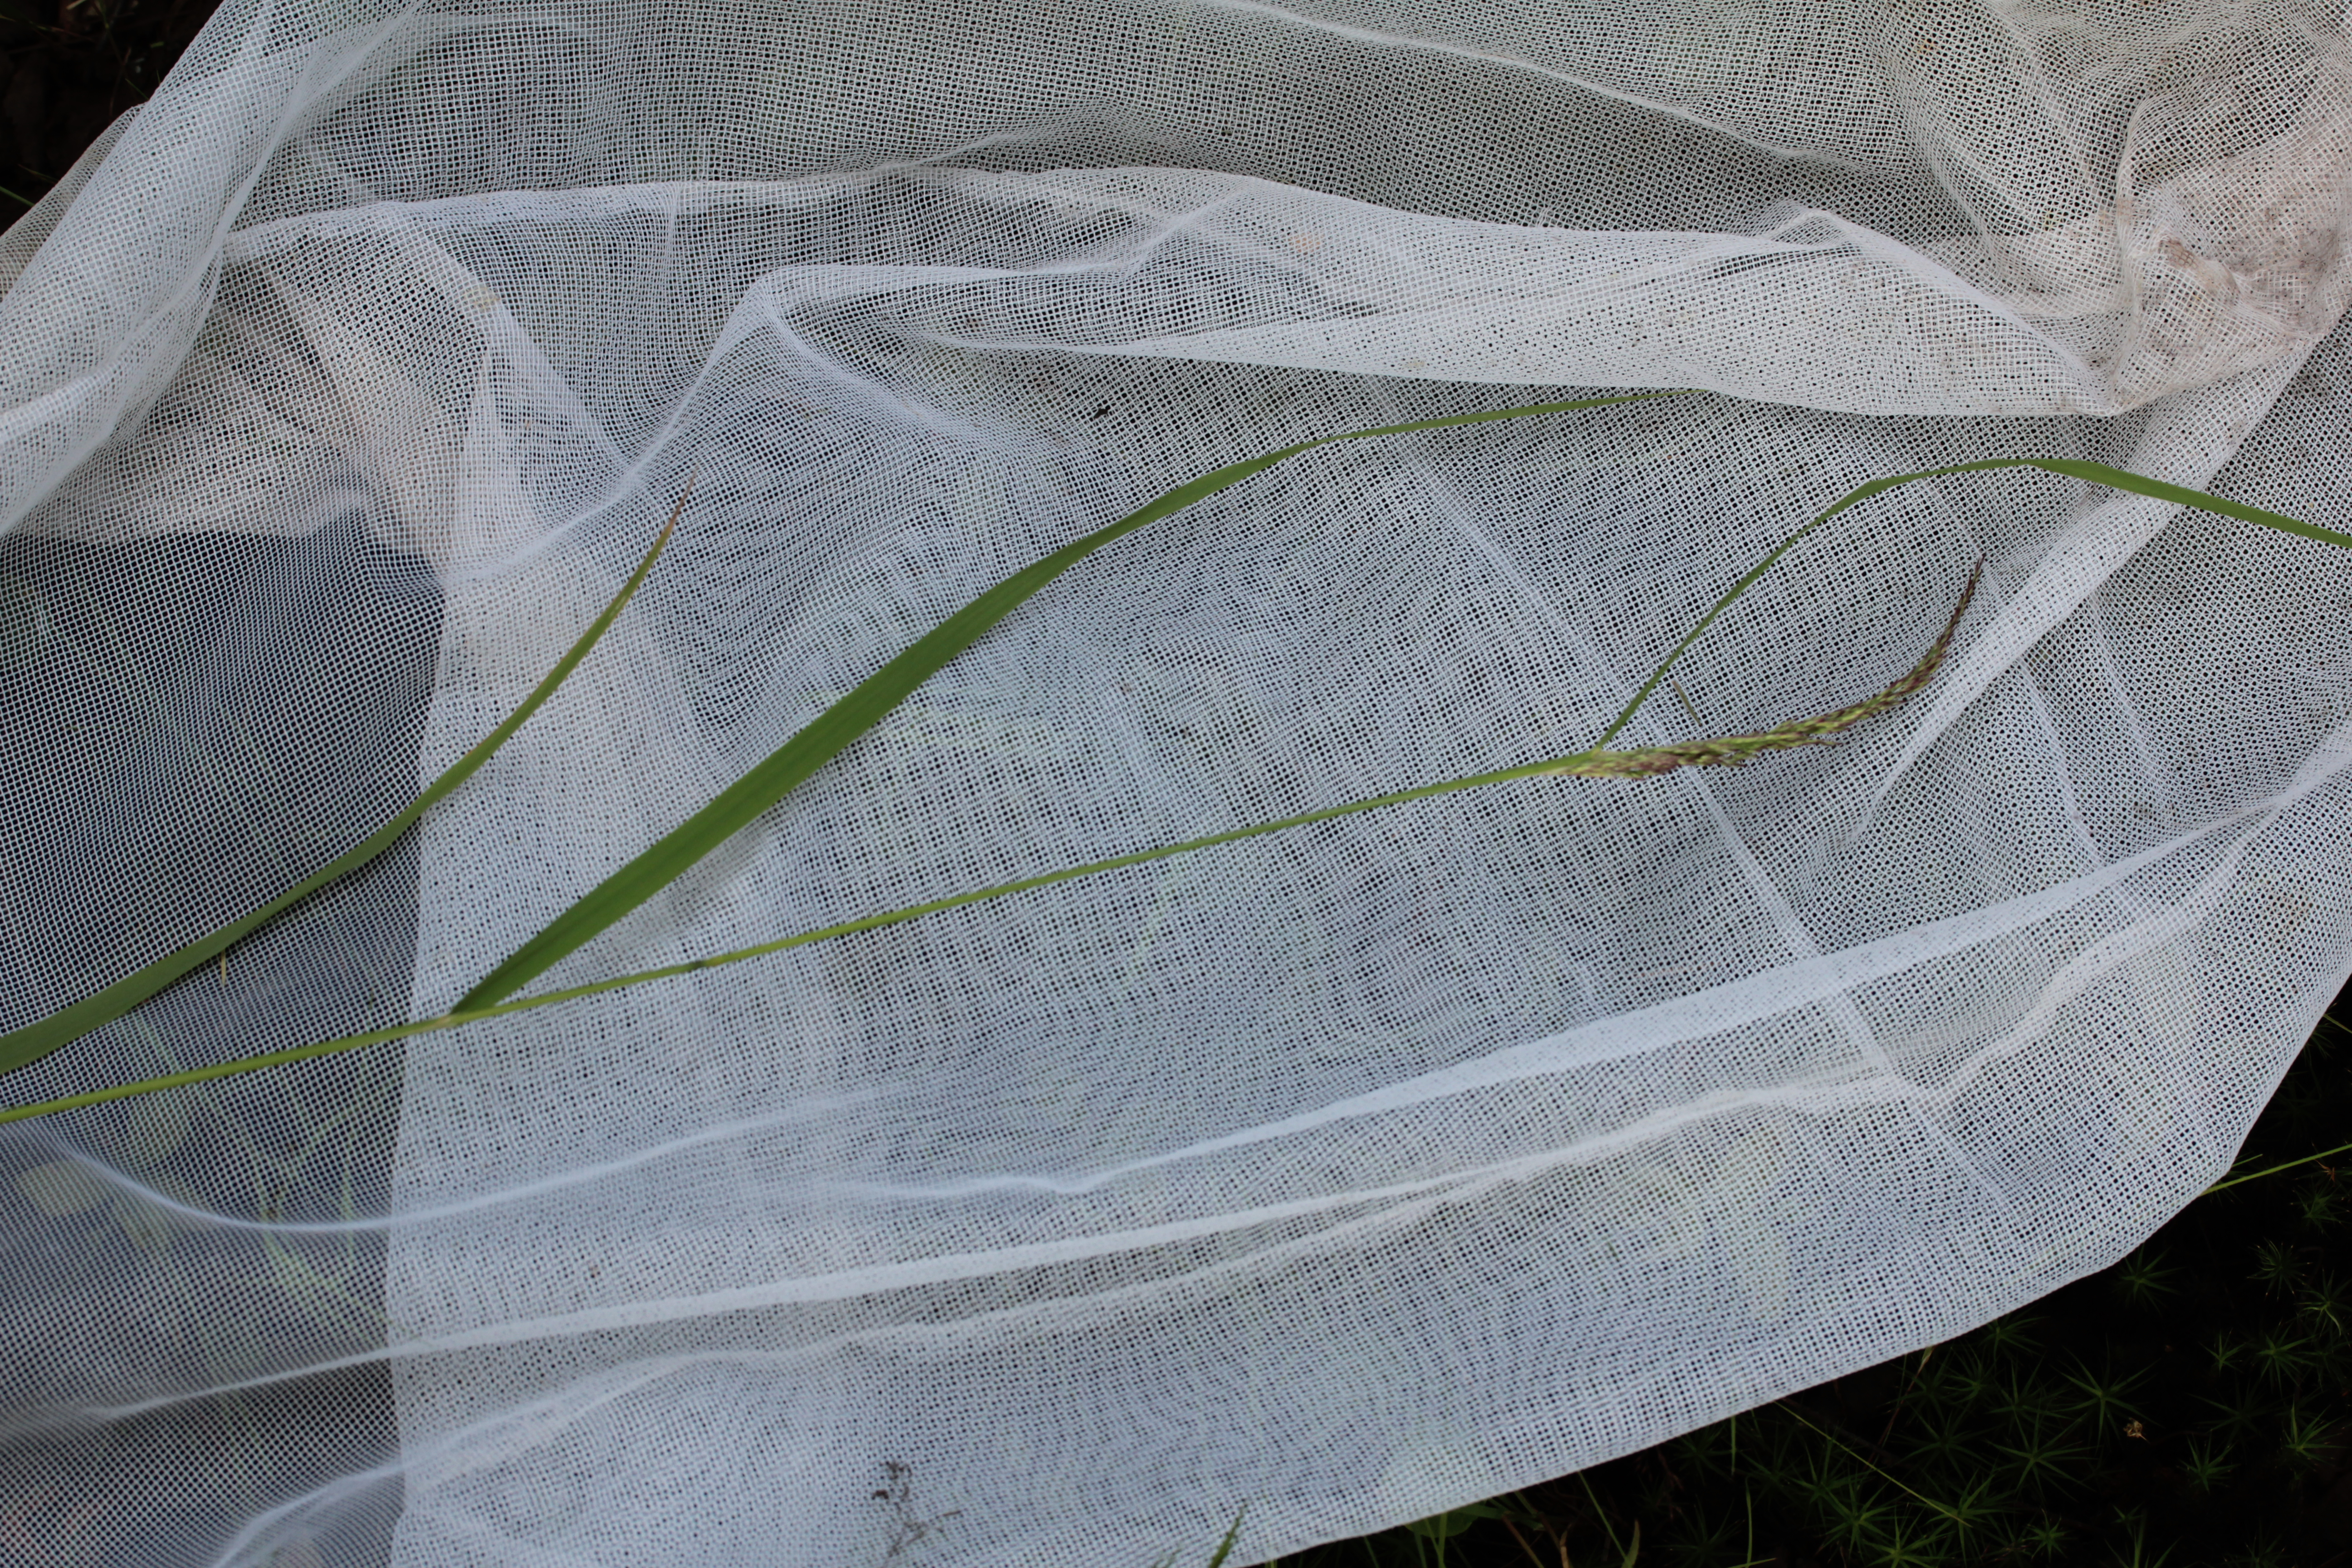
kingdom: Plantae
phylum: Tracheophyta
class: Liliopsida
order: Poales
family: Poaceae
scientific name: Poaceae
